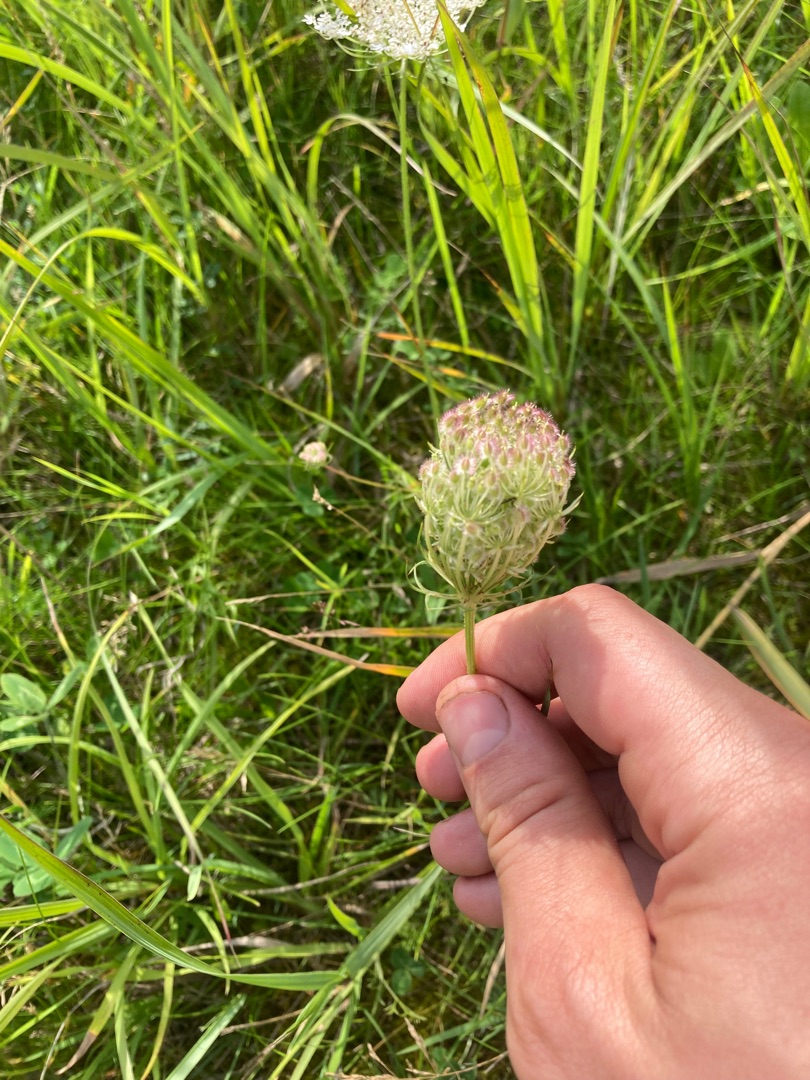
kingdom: Plantae
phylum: Tracheophyta
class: Magnoliopsida
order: Apiales
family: Apiaceae
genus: Daucus
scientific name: Daucus carota
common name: Vild gulerod
